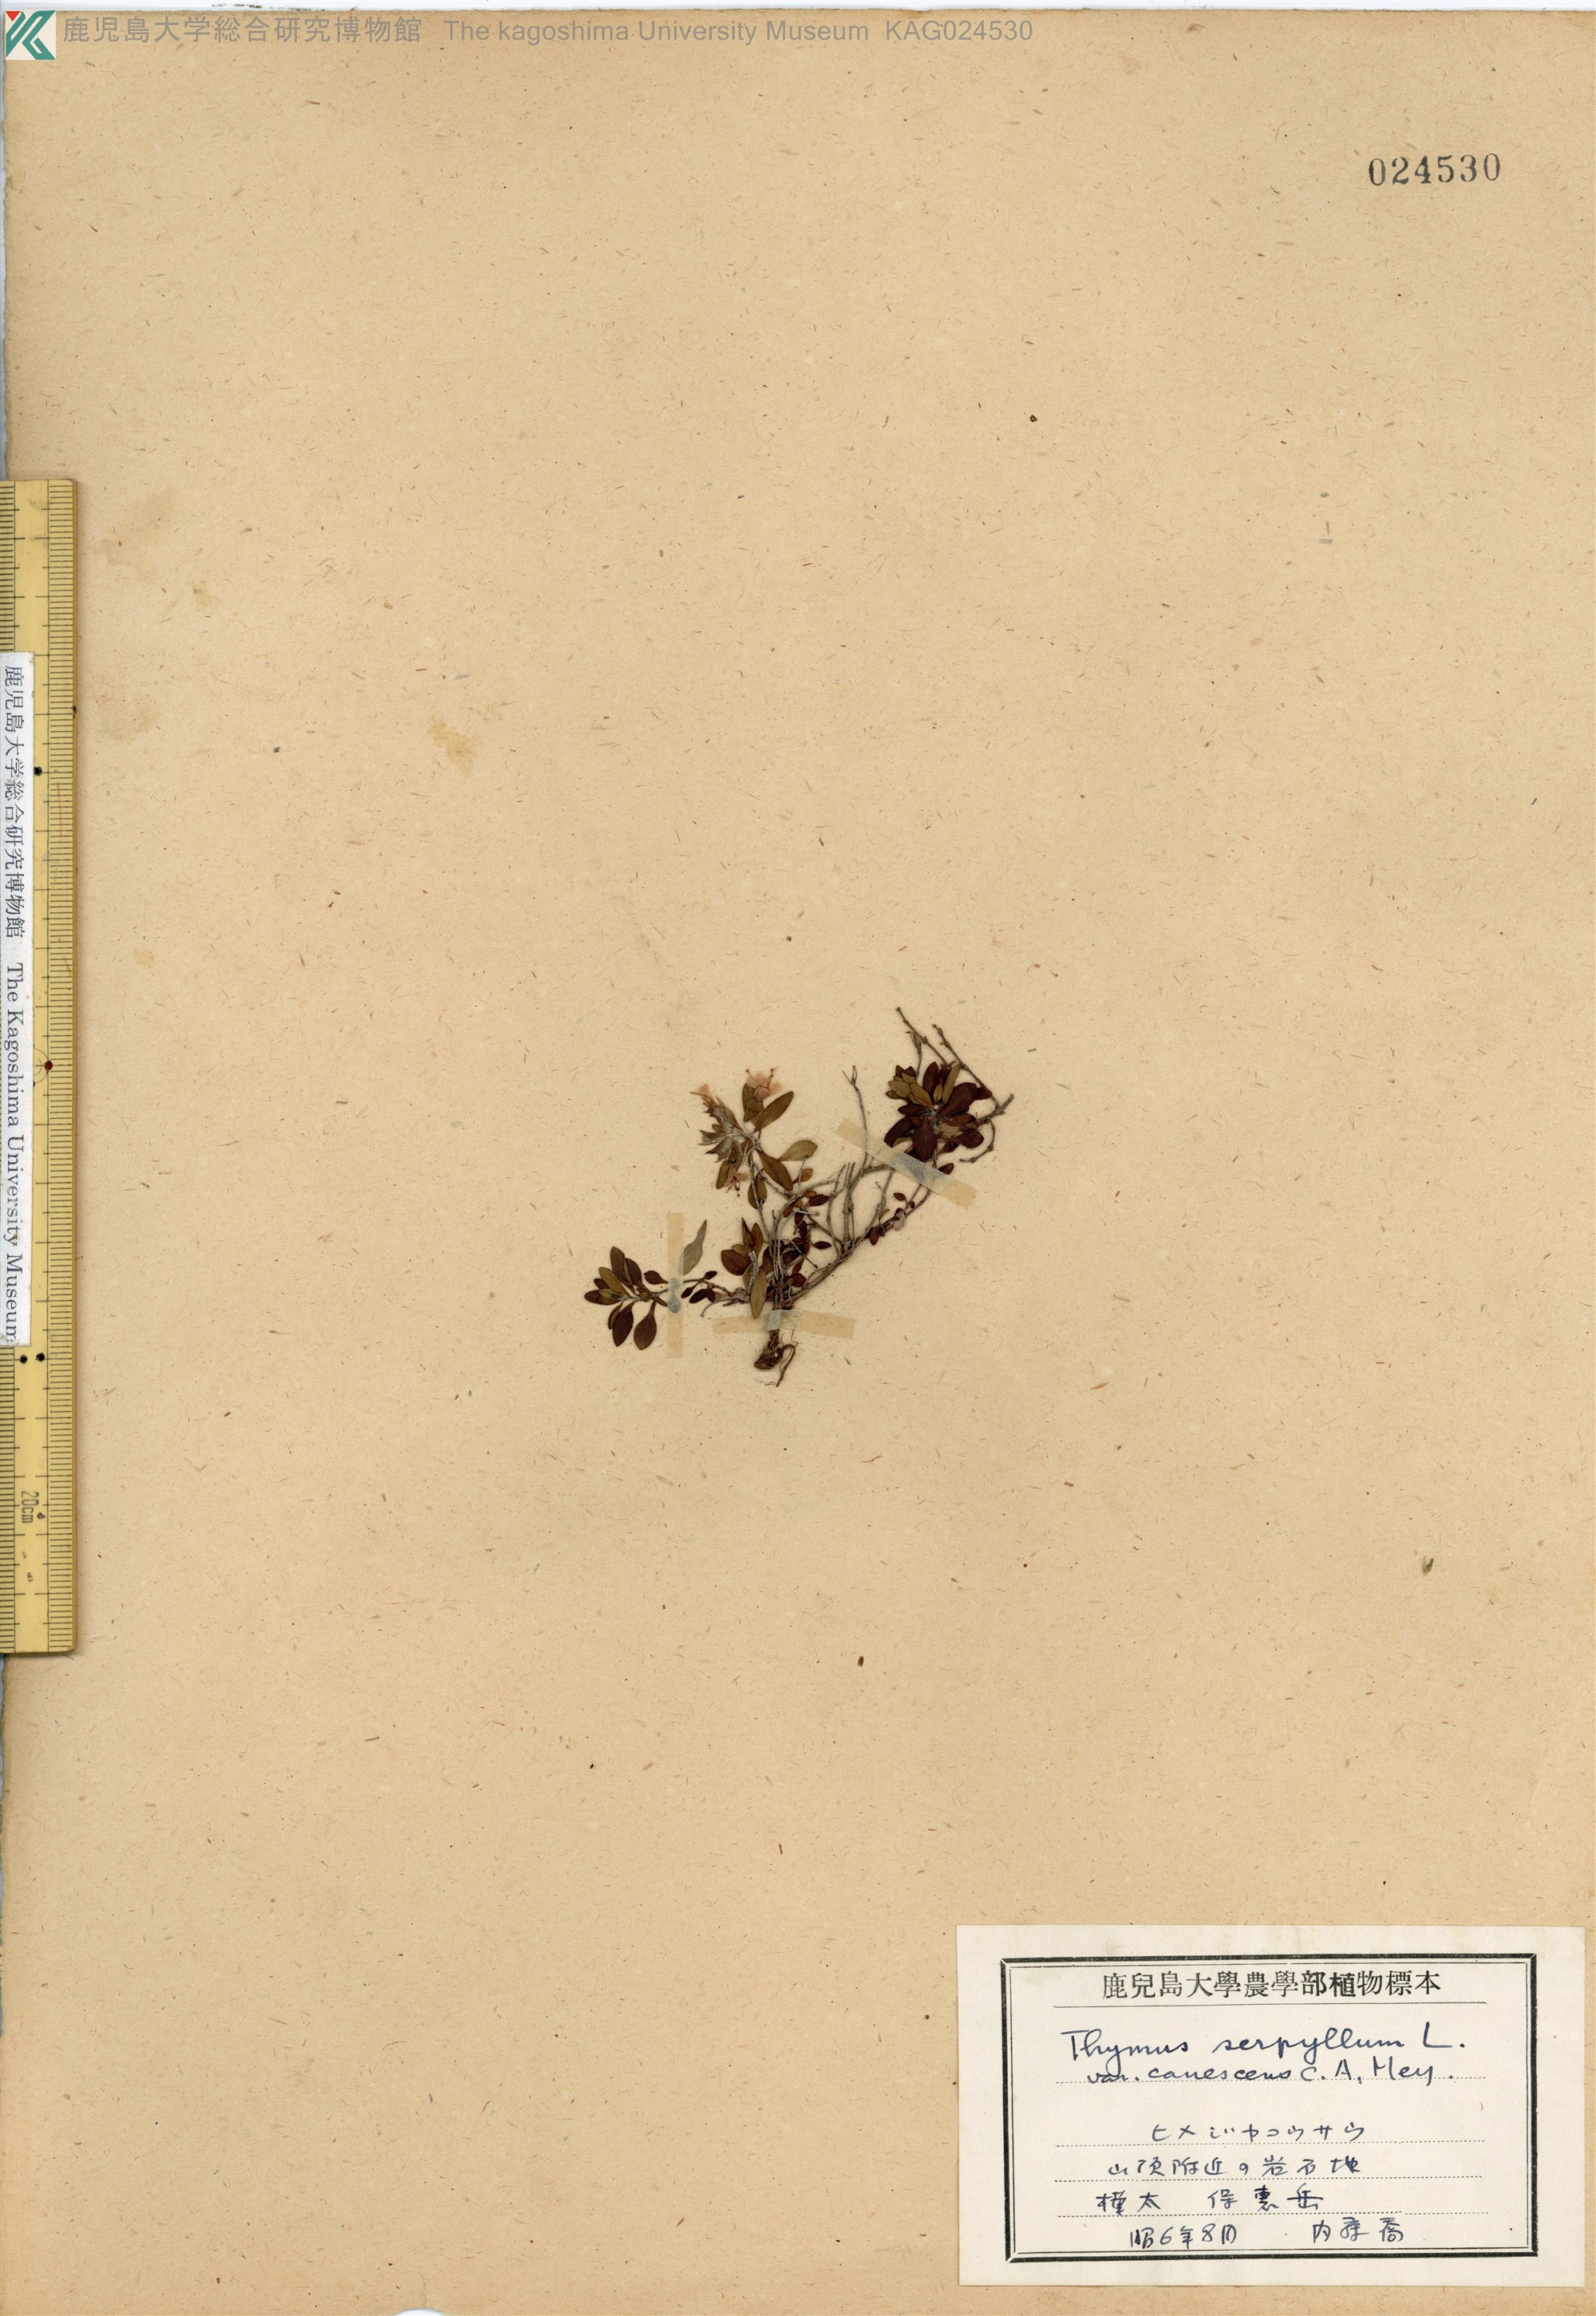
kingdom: Plantae
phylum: Tracheophyta
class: Magnoliopsida
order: Lamiales
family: Lamiaceae
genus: Thymus
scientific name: Thymus serpyllum
